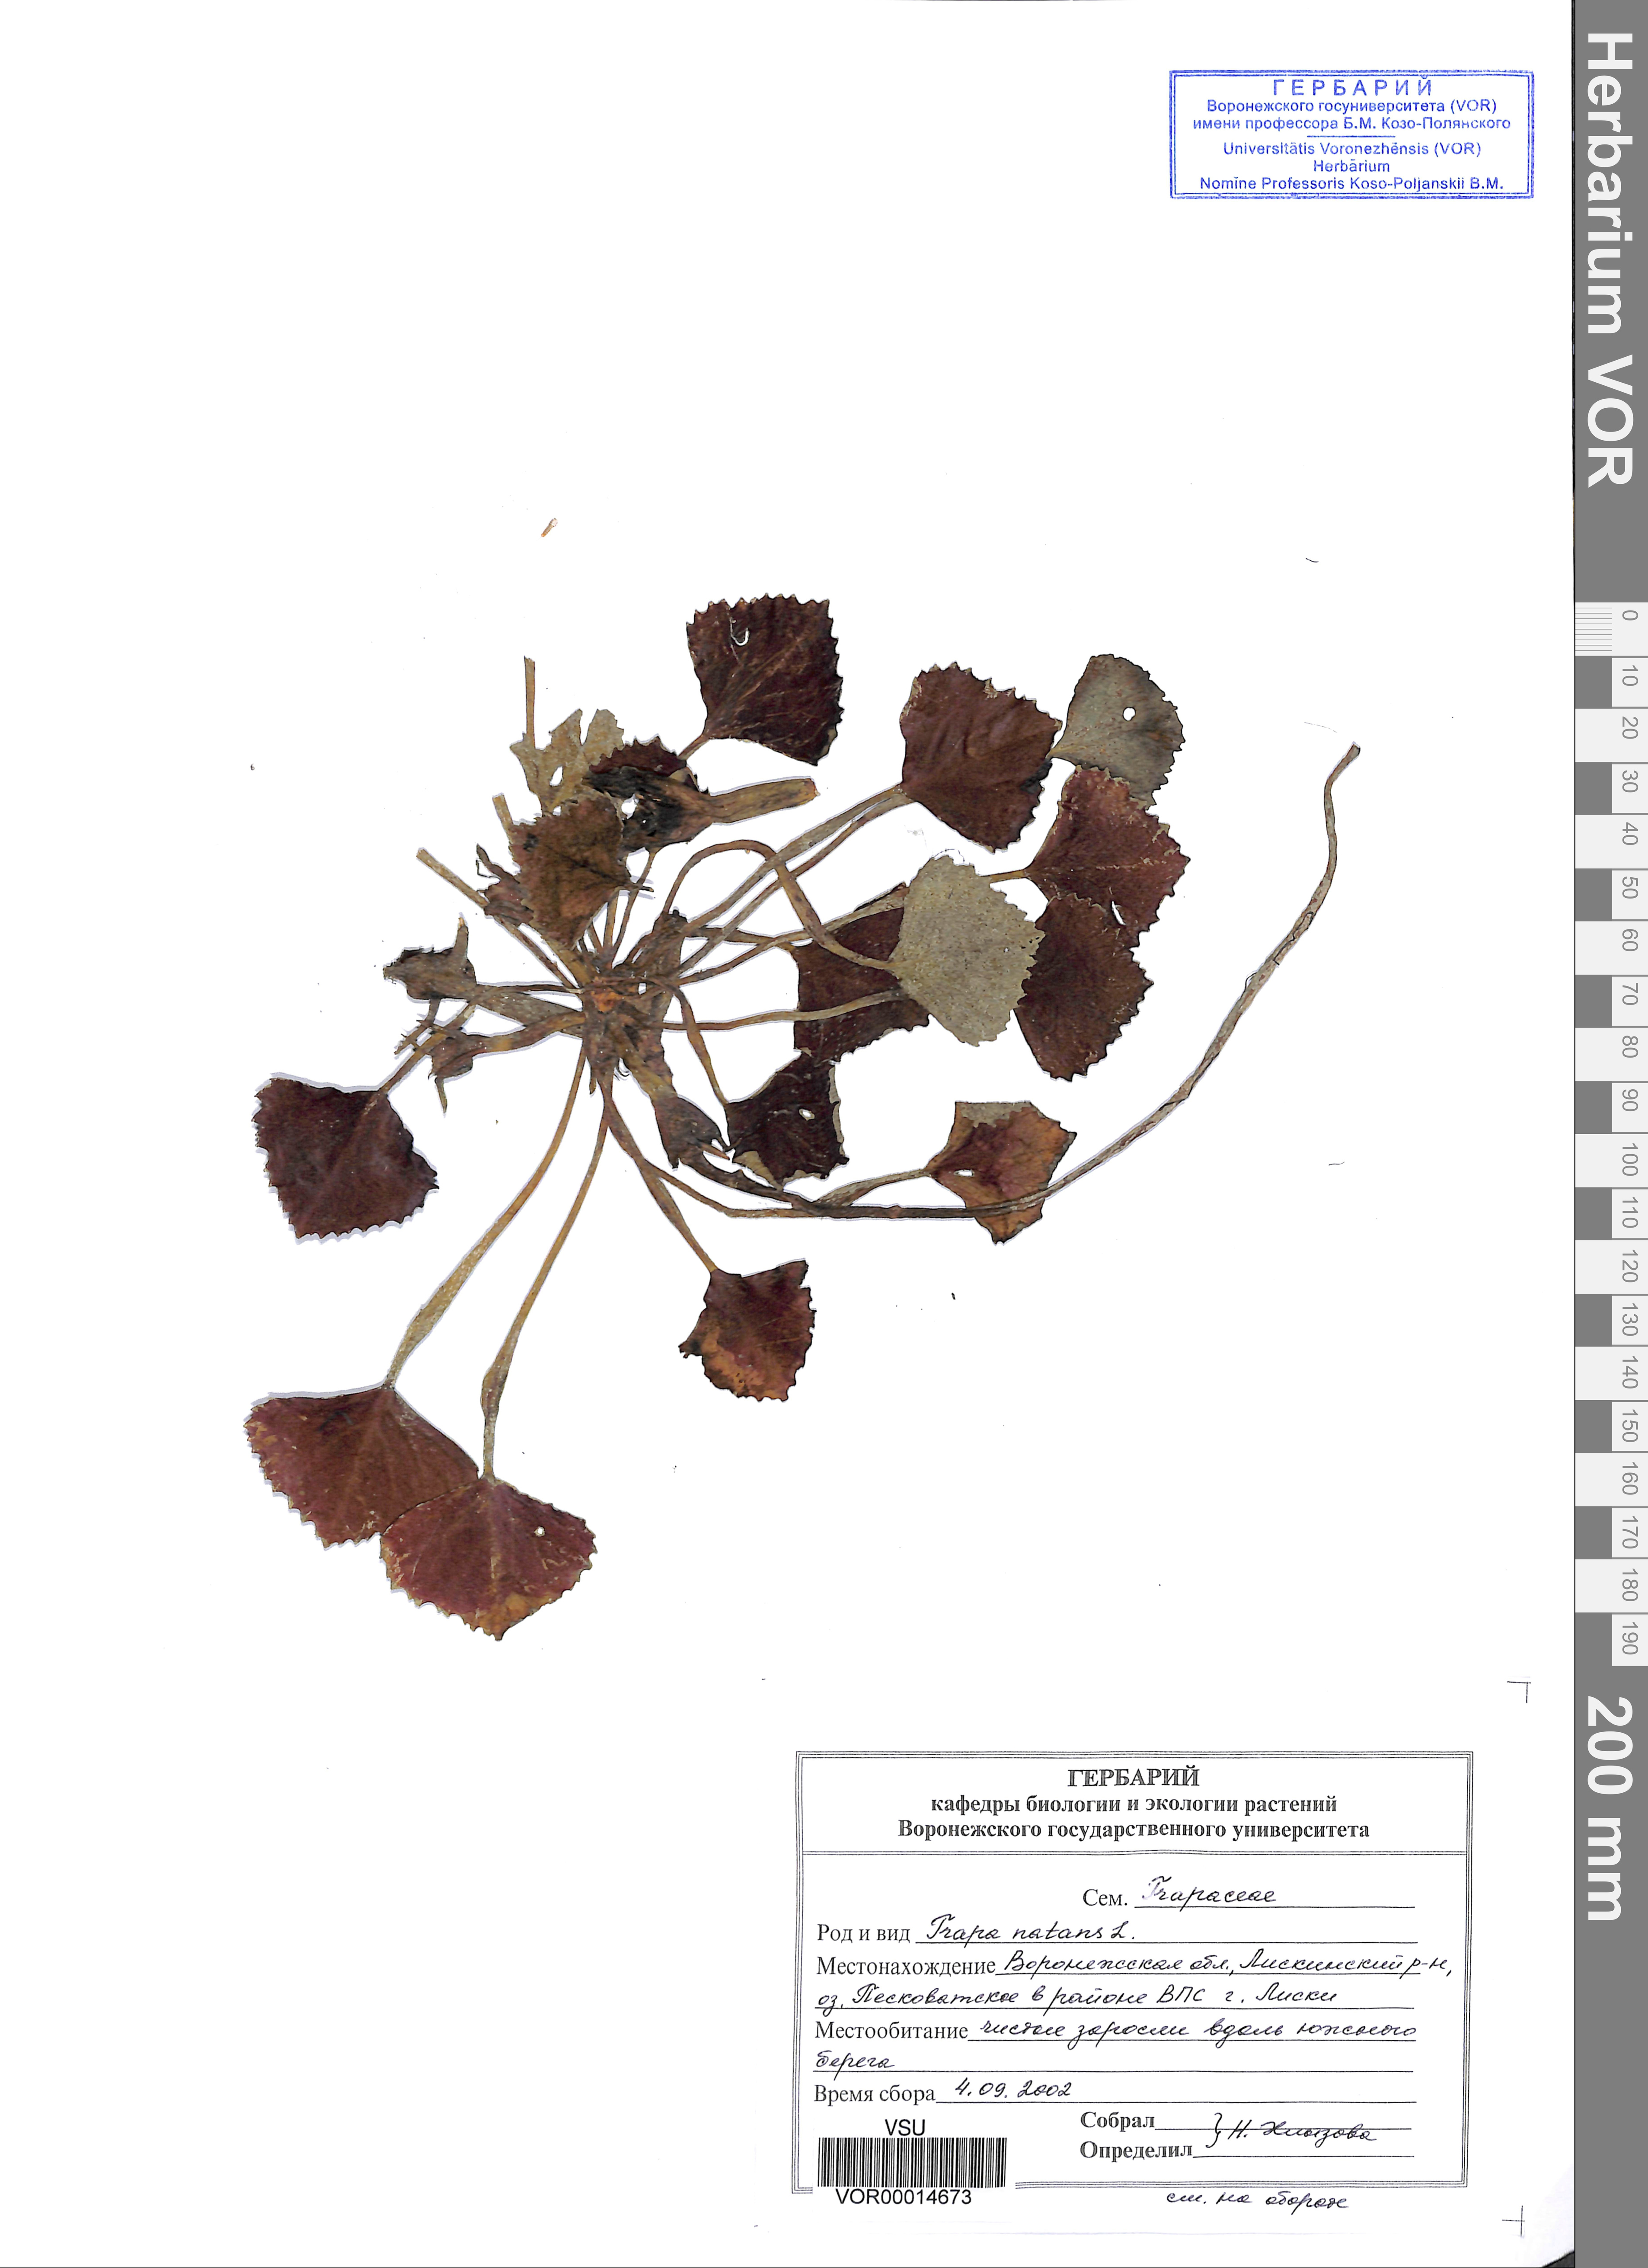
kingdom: Plantae
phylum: Tracheophyta
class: Magnoliopsida
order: Myrtales
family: Lythraceae
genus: Trapa
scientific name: Trapa natans
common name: Water chestnut
